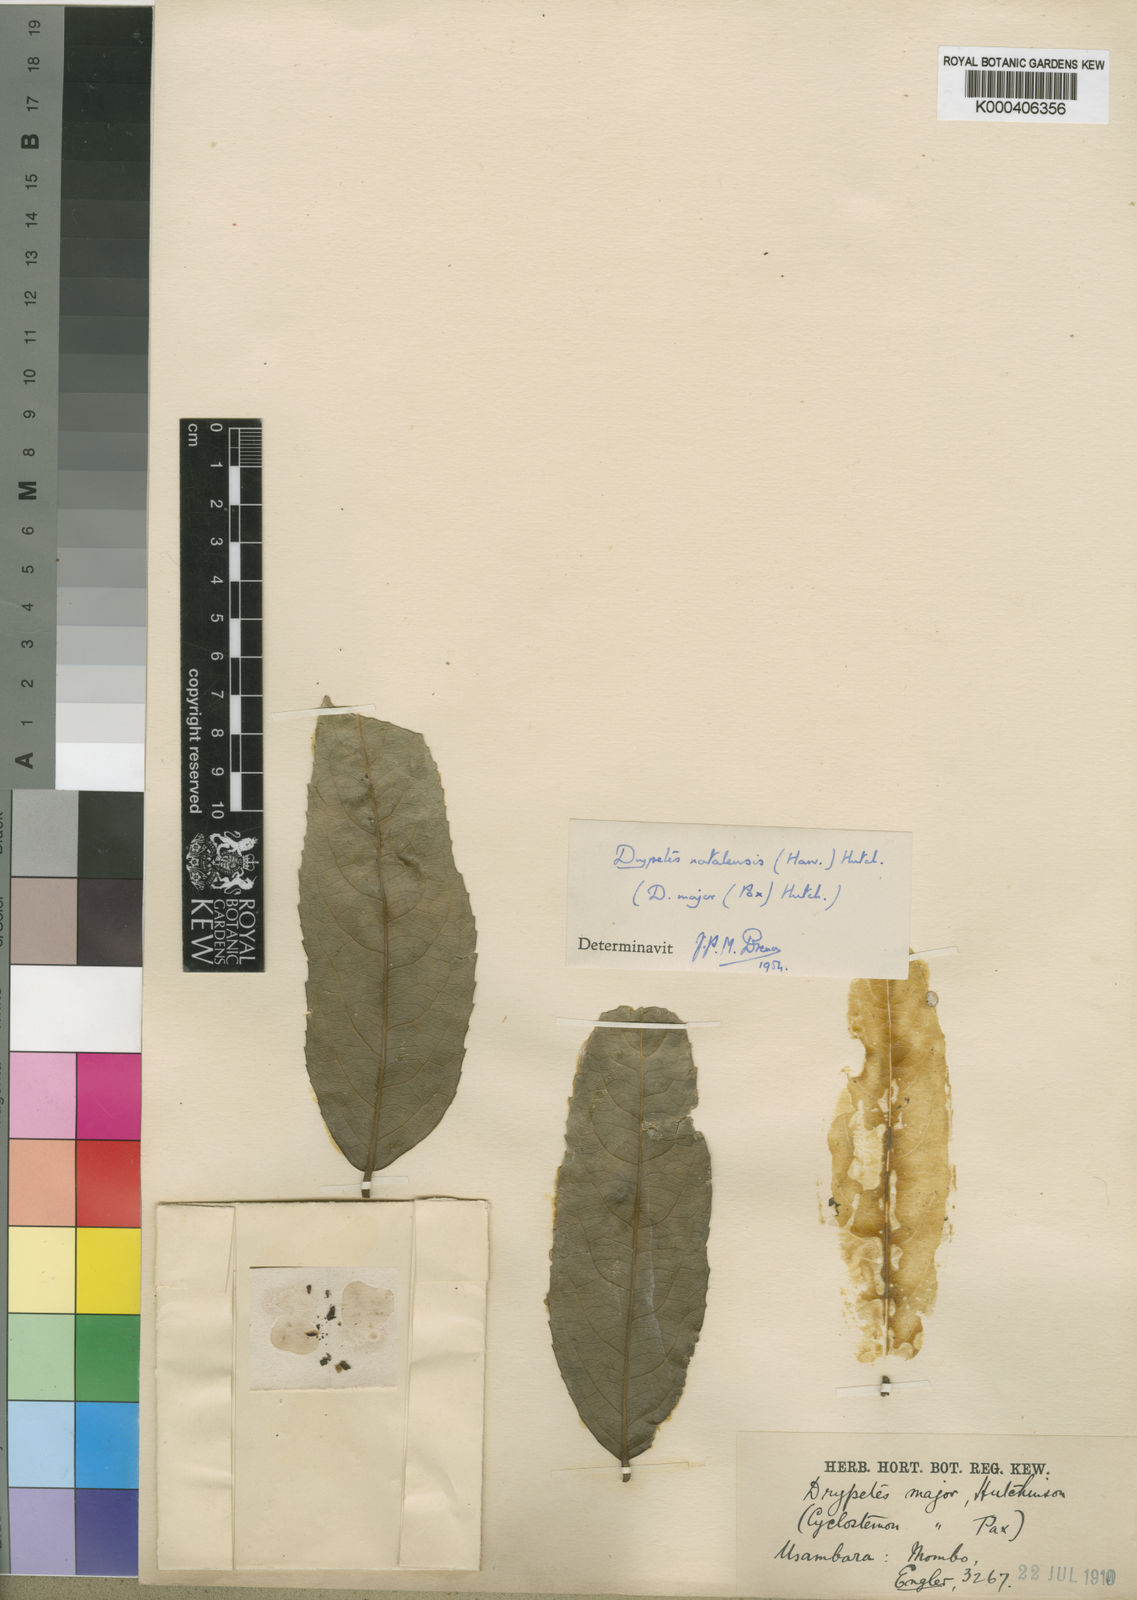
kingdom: Plantae
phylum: Tracheophyta
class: Magnoliopsida
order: Malpighiales
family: Putranjivaceae
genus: Drypetes
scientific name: Drypetes natalensis
